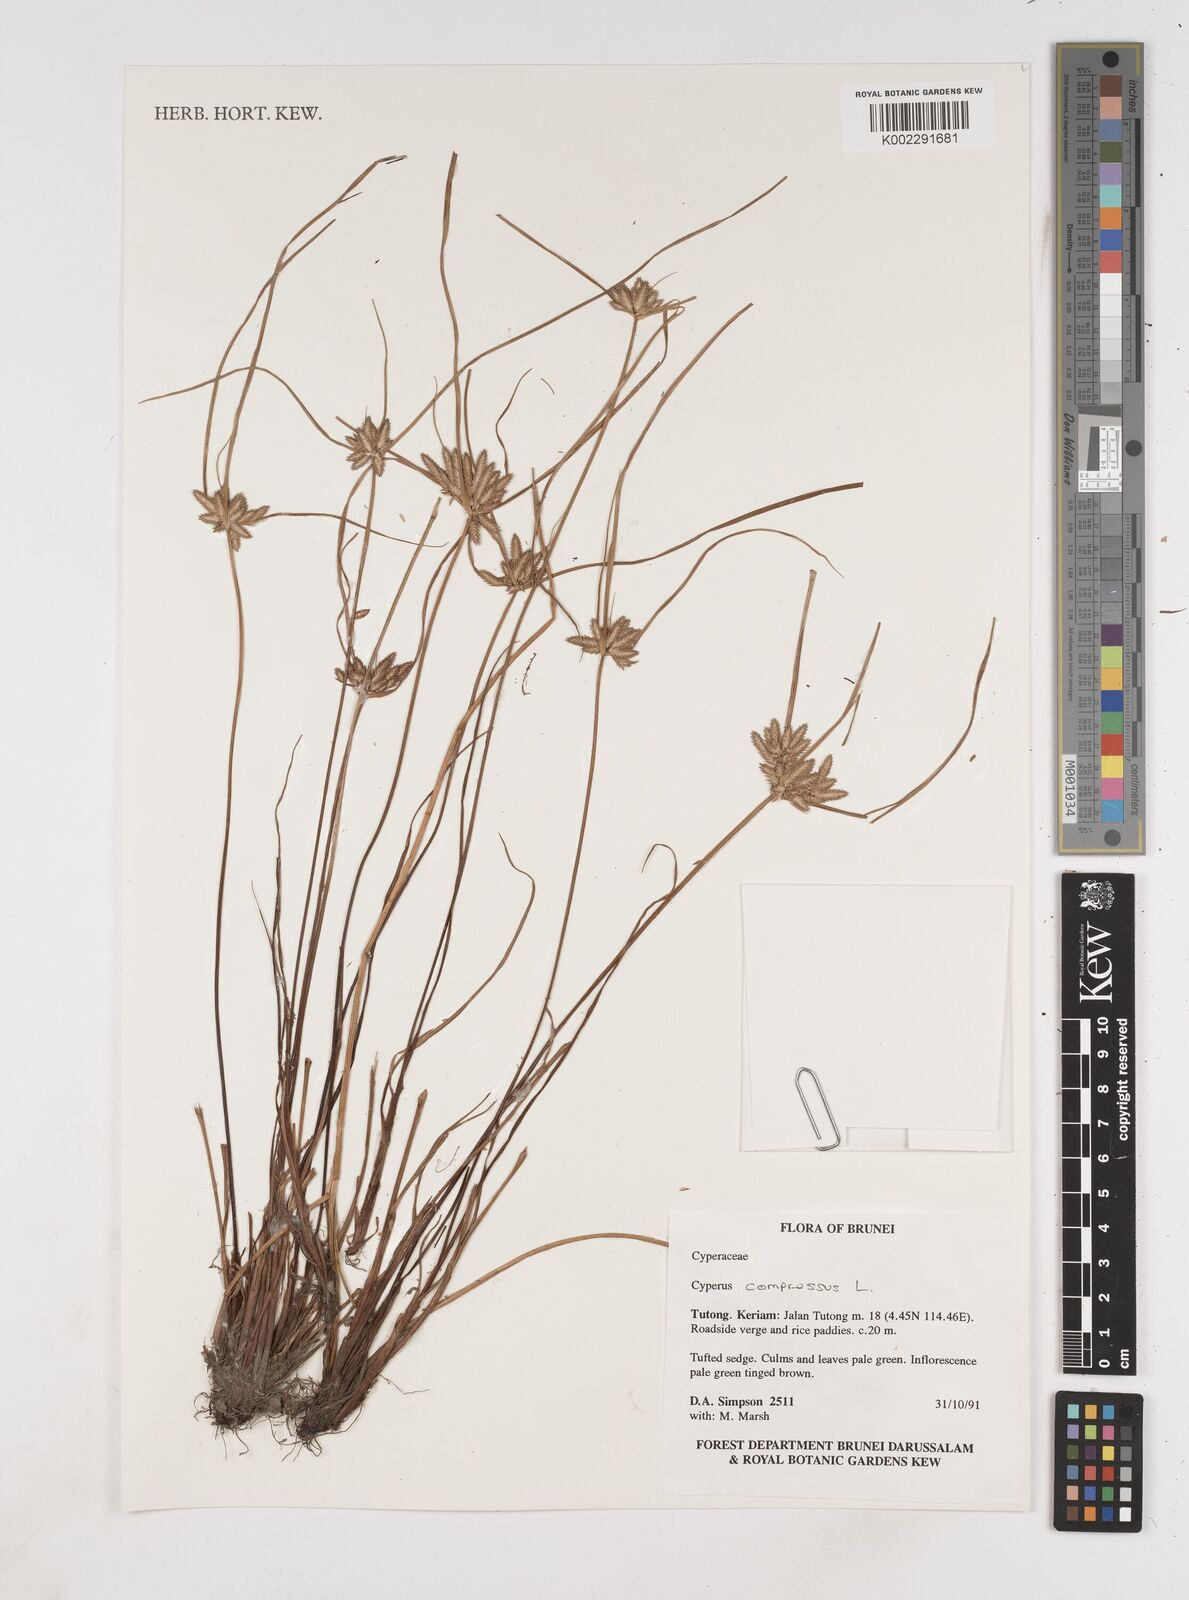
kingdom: Plantae
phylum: Tracheophyta
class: Liliopsida
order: Poales
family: Cyperaceae
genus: Cyperus
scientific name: Cyperus compressus
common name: Poorland flatsedge
